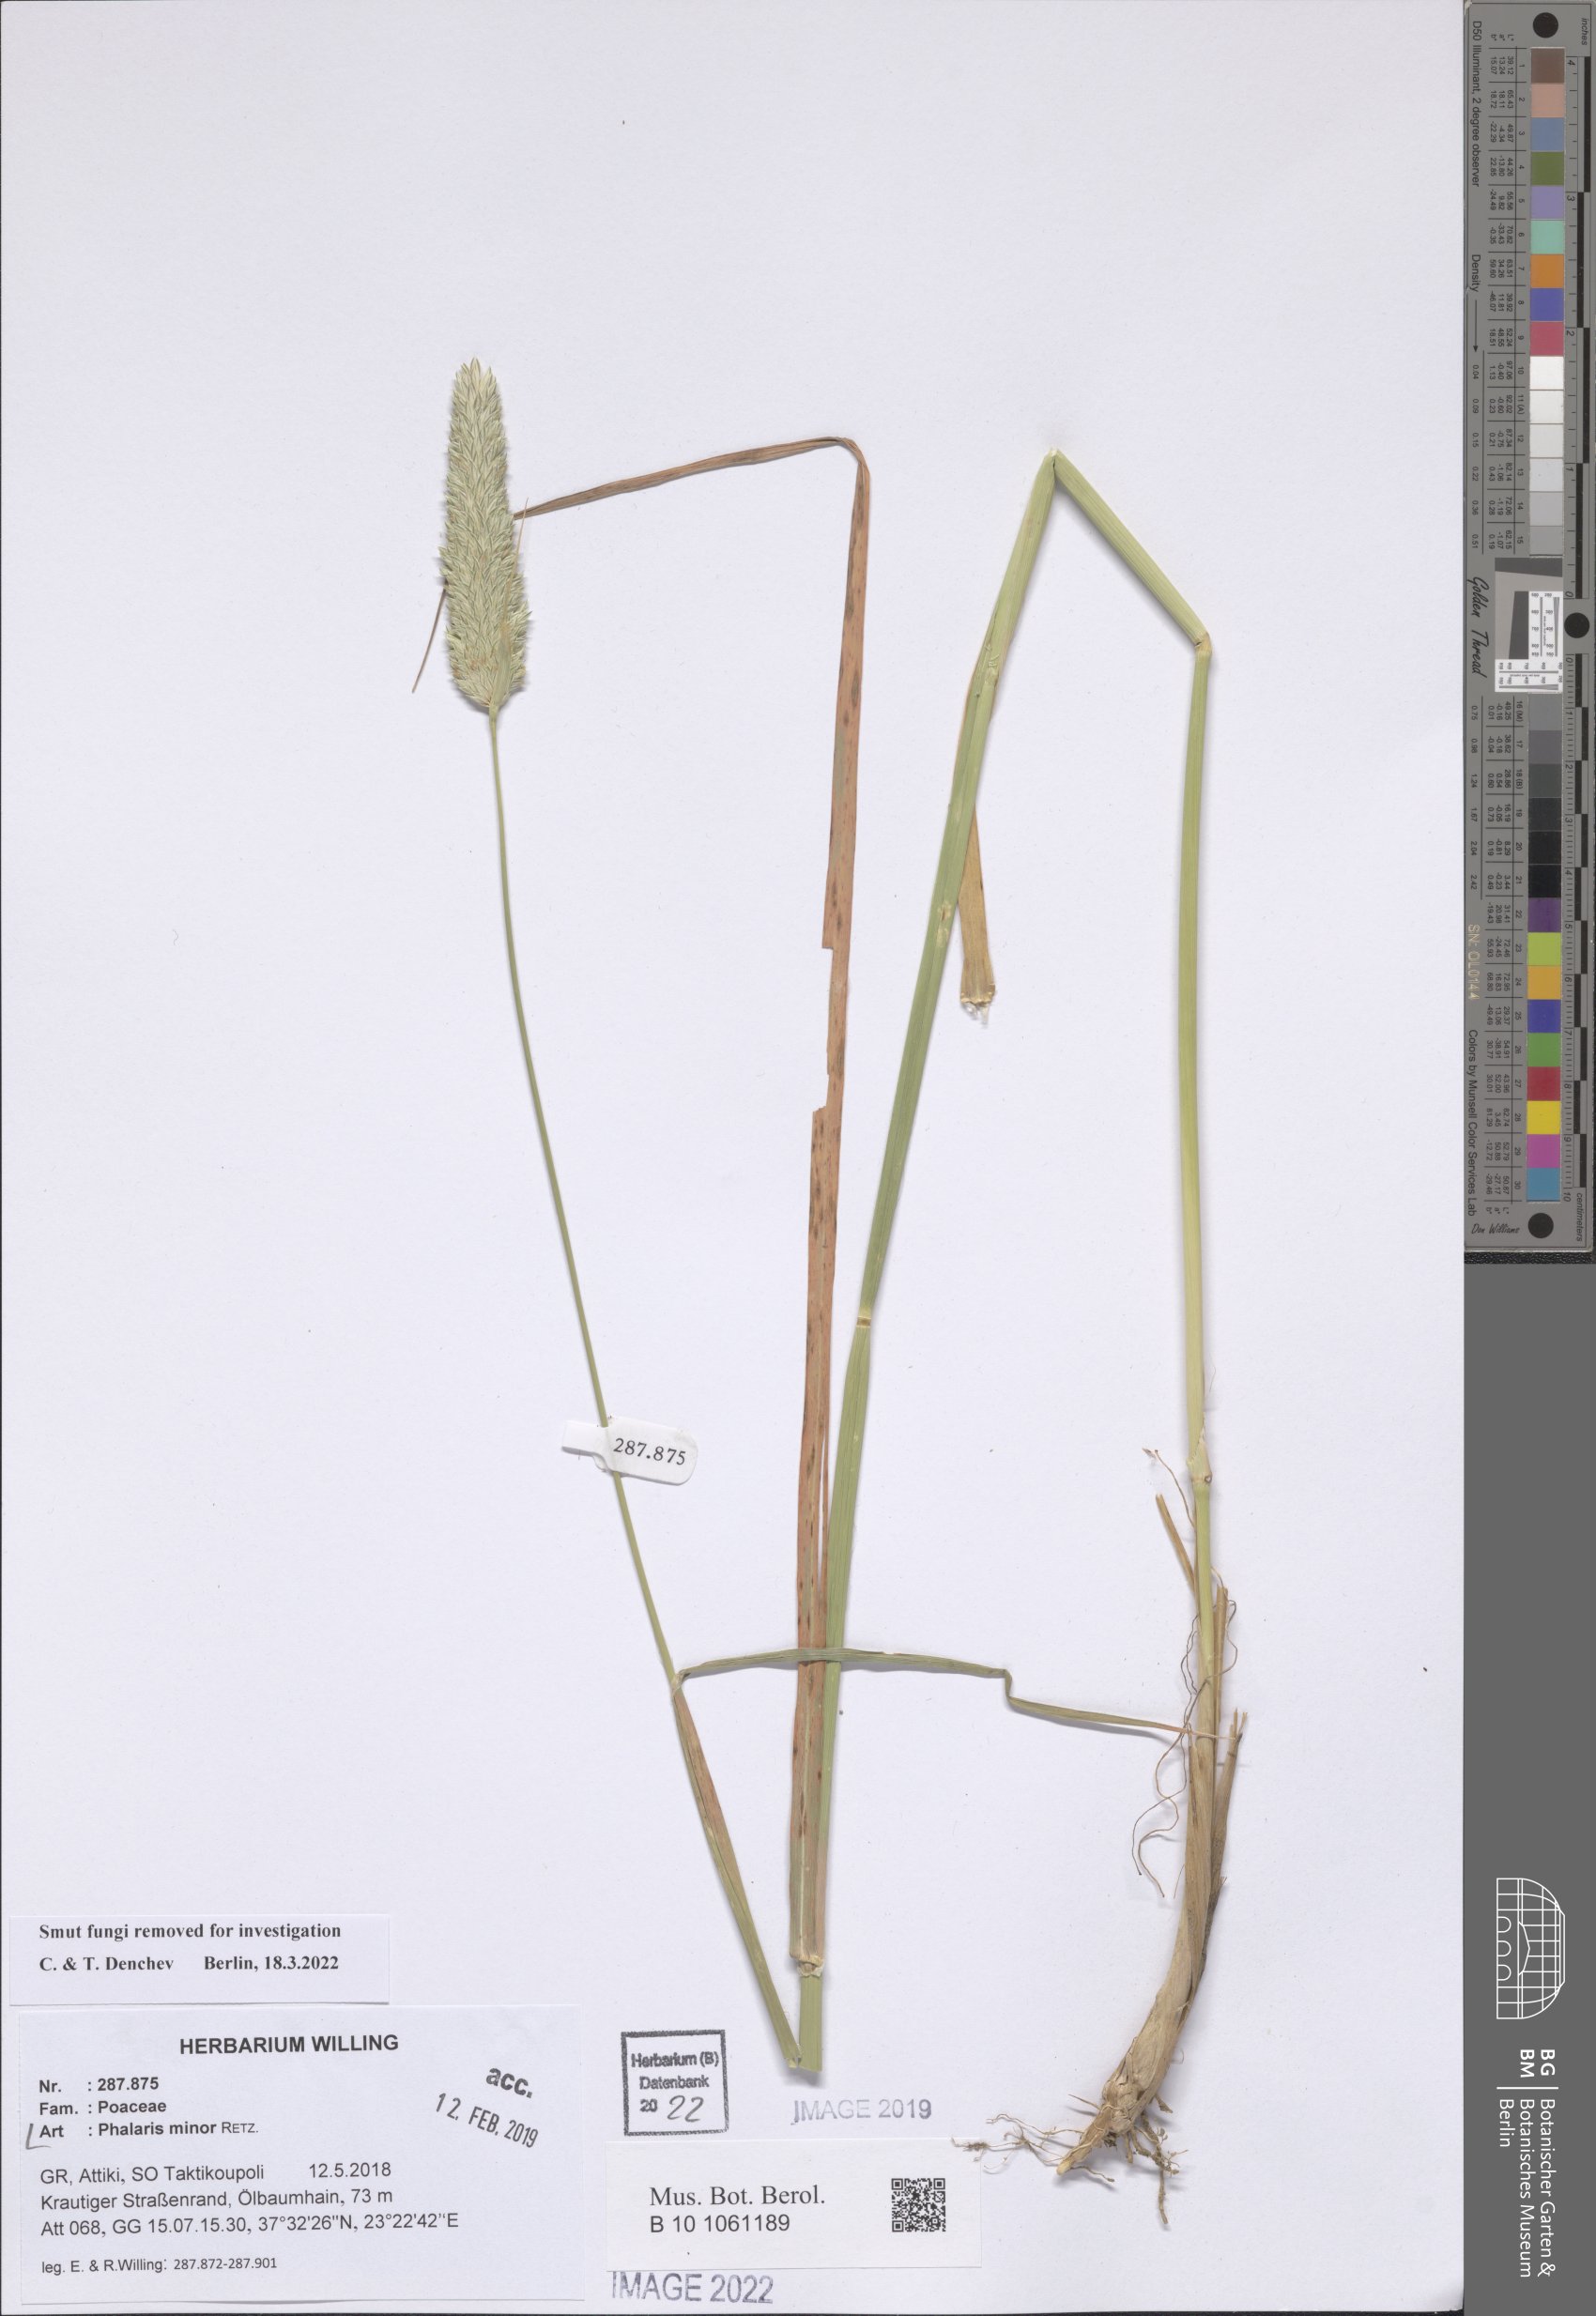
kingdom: Plantae
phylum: Tracheophyta
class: Liliopsida
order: Poales
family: Poaceae
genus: Phalaris
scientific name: Phalaris minor
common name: Littleseed canarygrass
